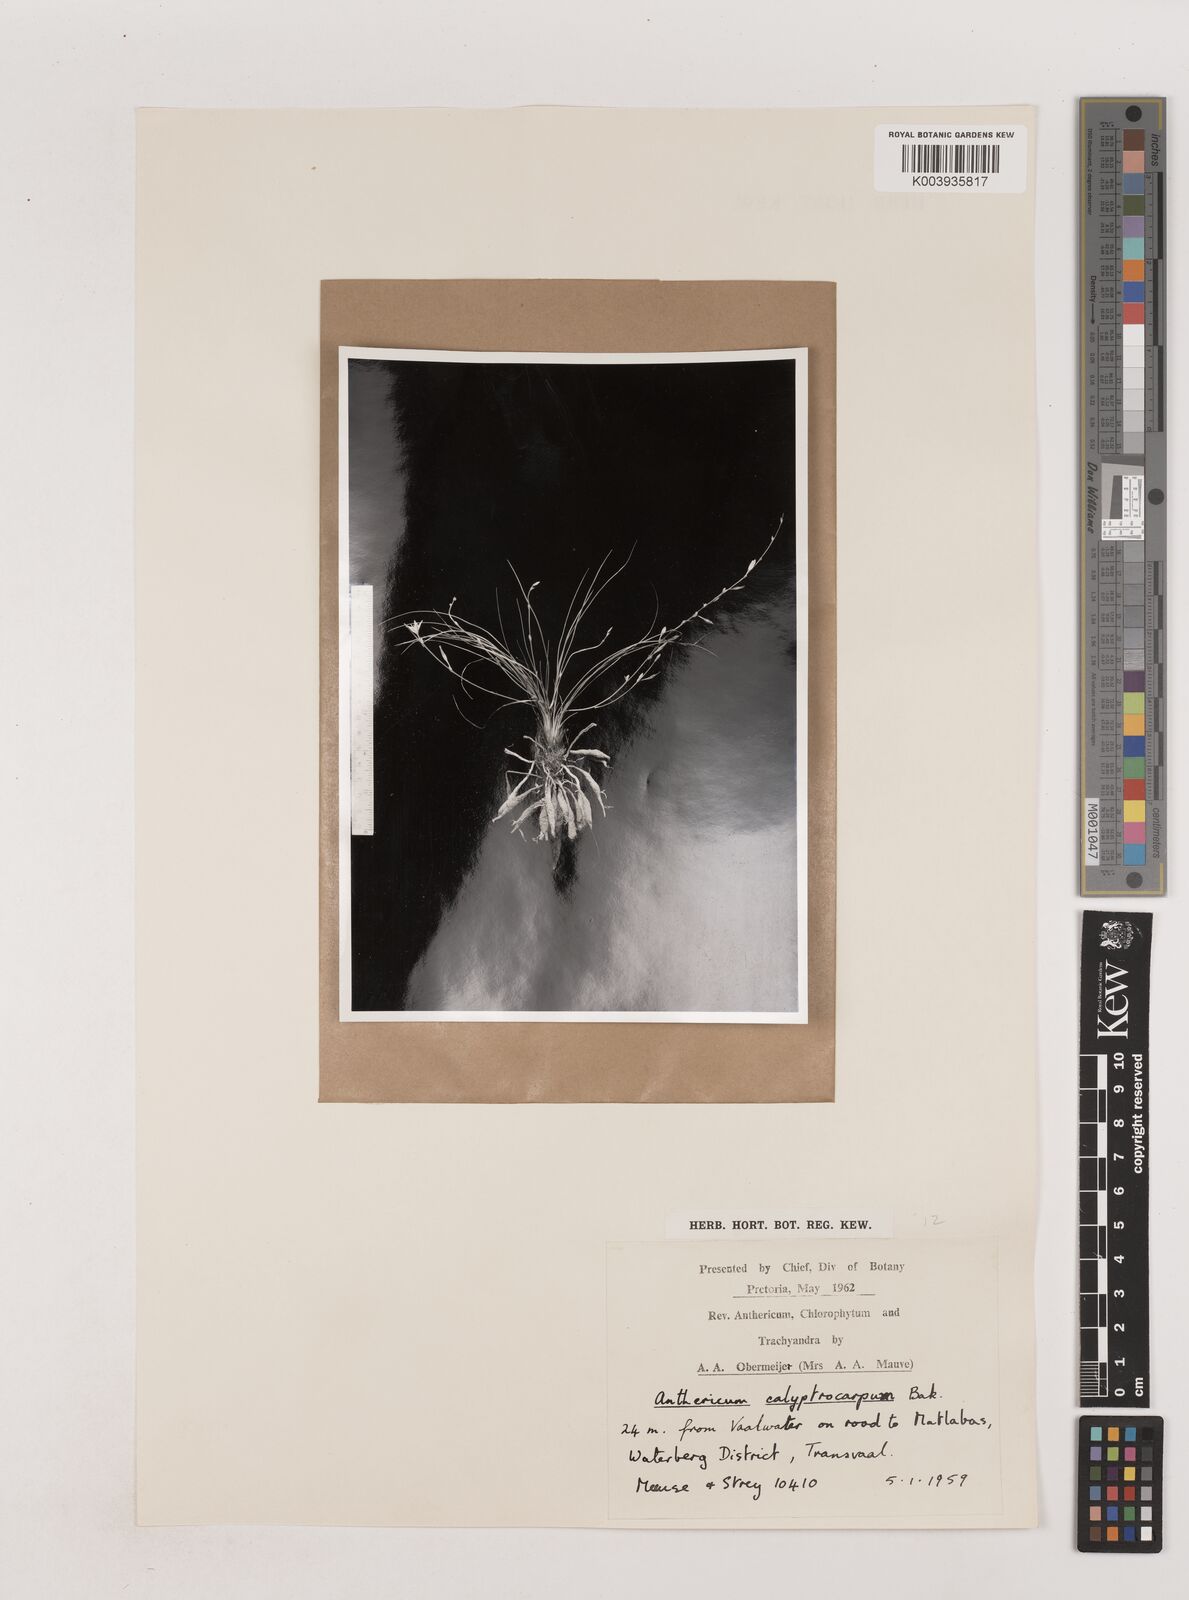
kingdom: Plantae
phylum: Tracheophyta
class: Liliopsida
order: Asparagales
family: Asparagaceae
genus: Chlorophytum
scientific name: Chlorophytum calyptrocarpum
